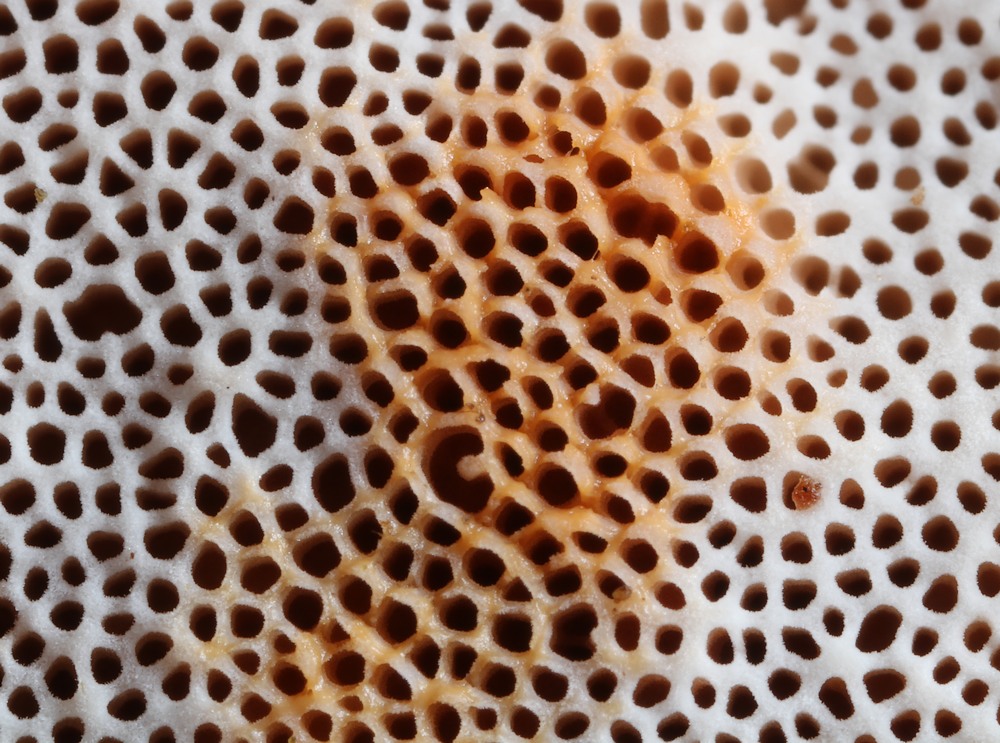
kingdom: Fungi
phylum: Basidiomycota
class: Agaricomycetes
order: Polyporales
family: Irpicaceae
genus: Ceriporia
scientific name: Ceriporia purpurea
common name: purpur-voksporesvamp
